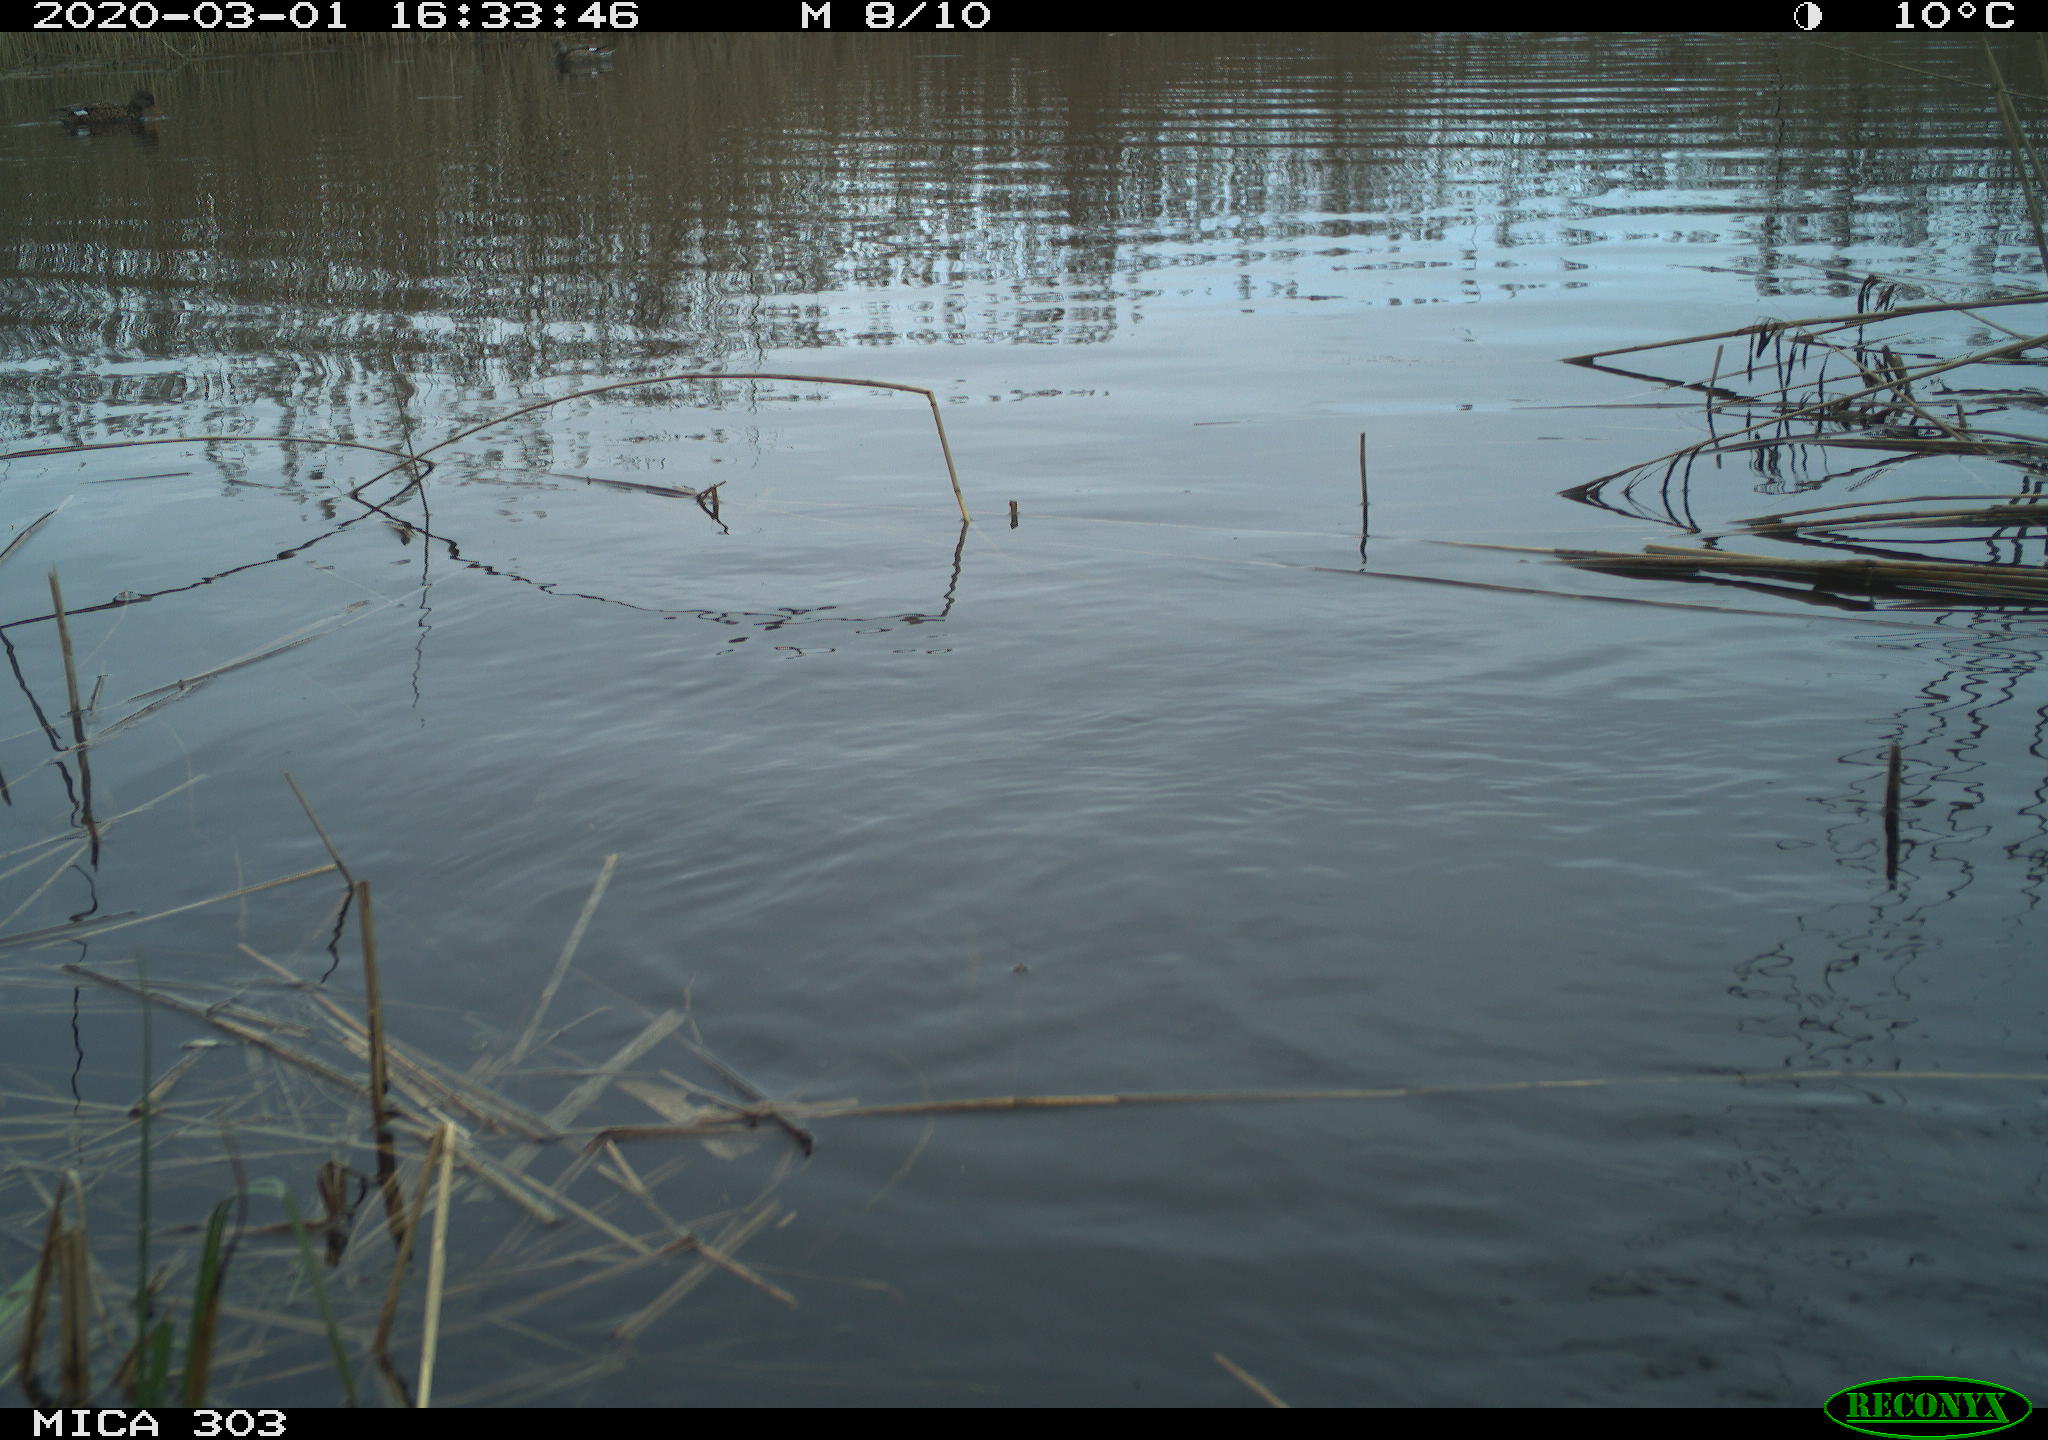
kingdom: Animalia
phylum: Chordata
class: Aves
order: Anseriformes
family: Anatidae
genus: Mareca
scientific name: Mareca strepera
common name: Gadwall
